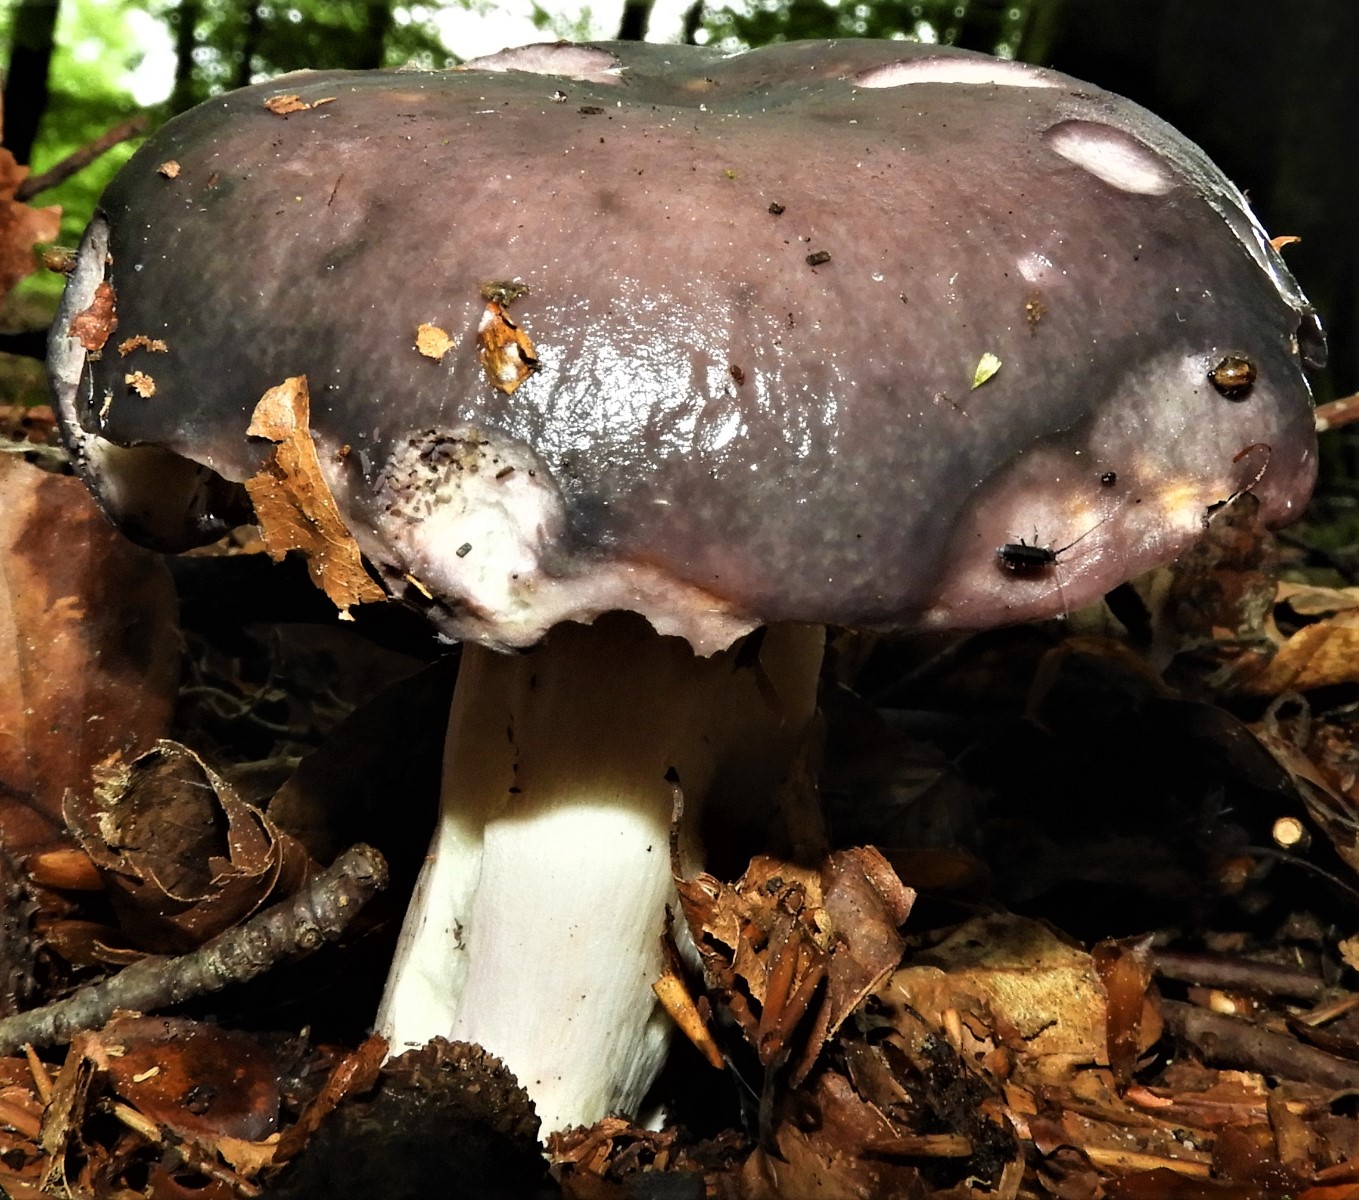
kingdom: Fungi
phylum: Basidiomycota
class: Agaricomycetes
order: Russulales
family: Russulaceae
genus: Russula
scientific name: Russula cyanoxantha
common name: broget skørhat
